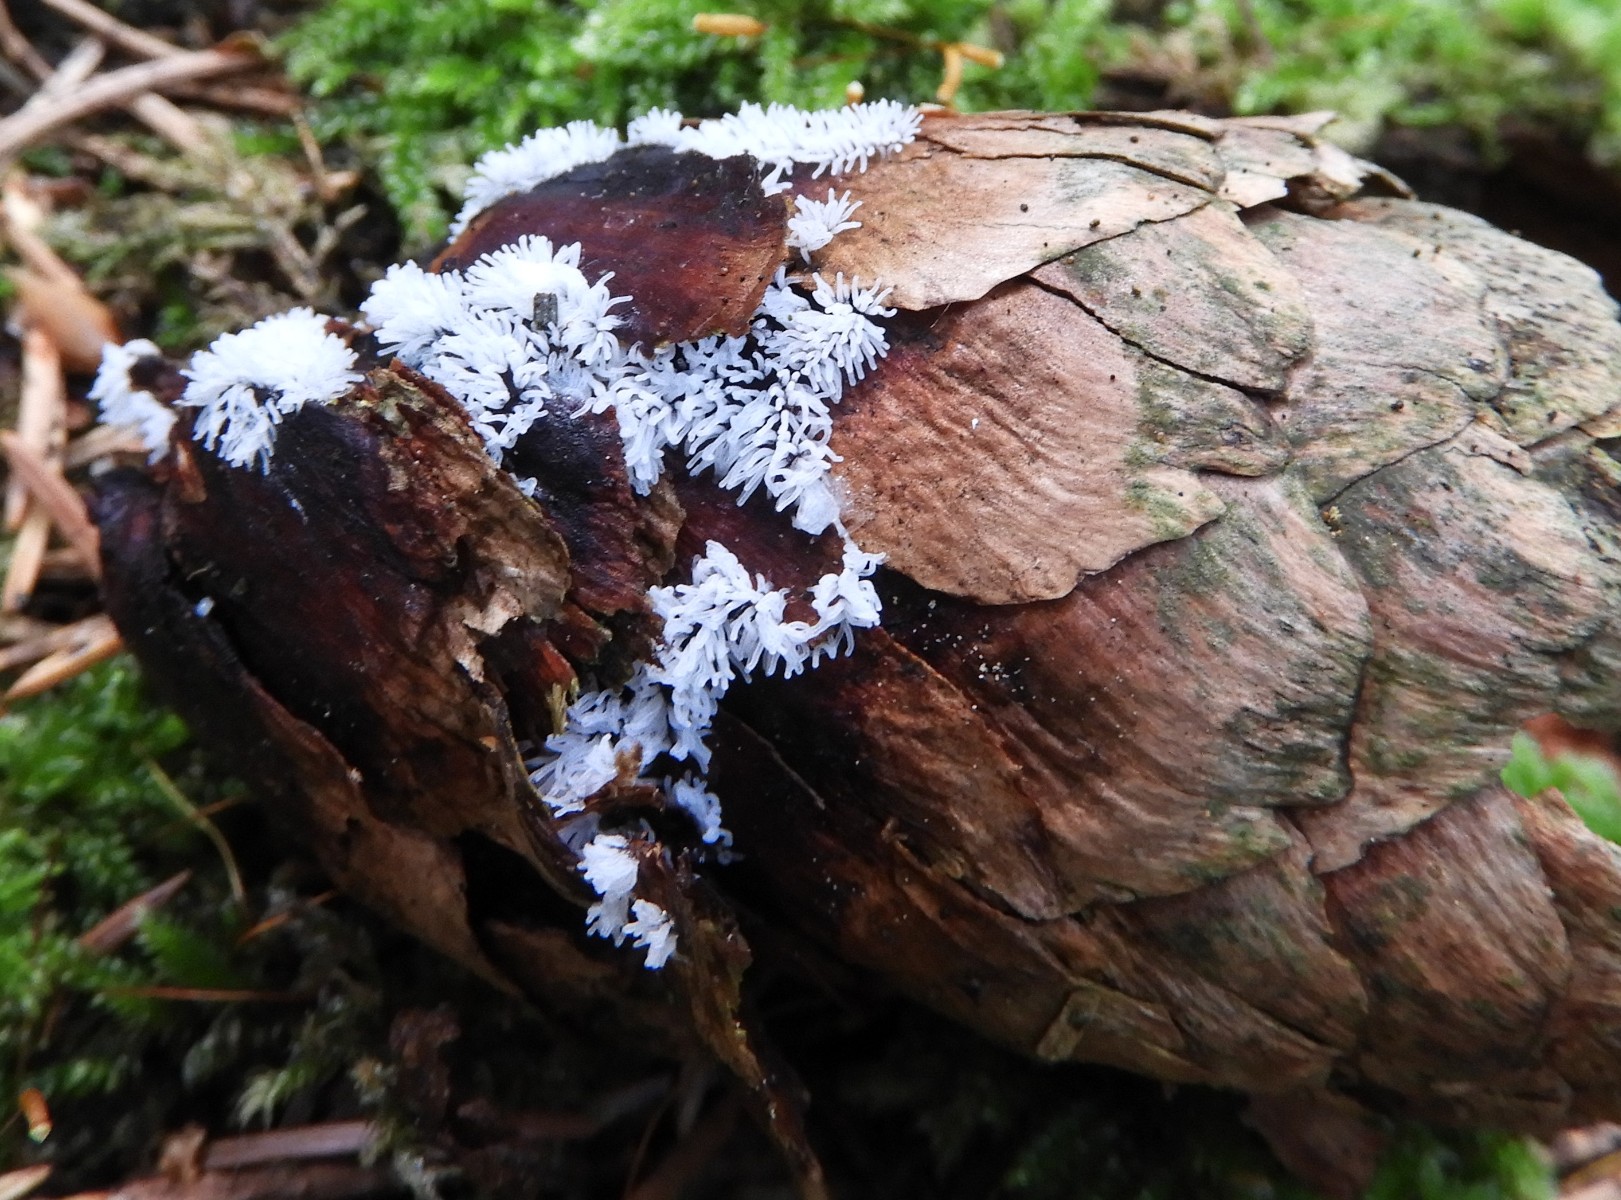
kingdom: Protozoa
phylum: Mycetozoa
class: Protosteliomycetes
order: Ceratiomyxales
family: Ceratiomyxaceae
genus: Ceratiomyxa
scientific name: Ceratiomyxa fruticulosa
